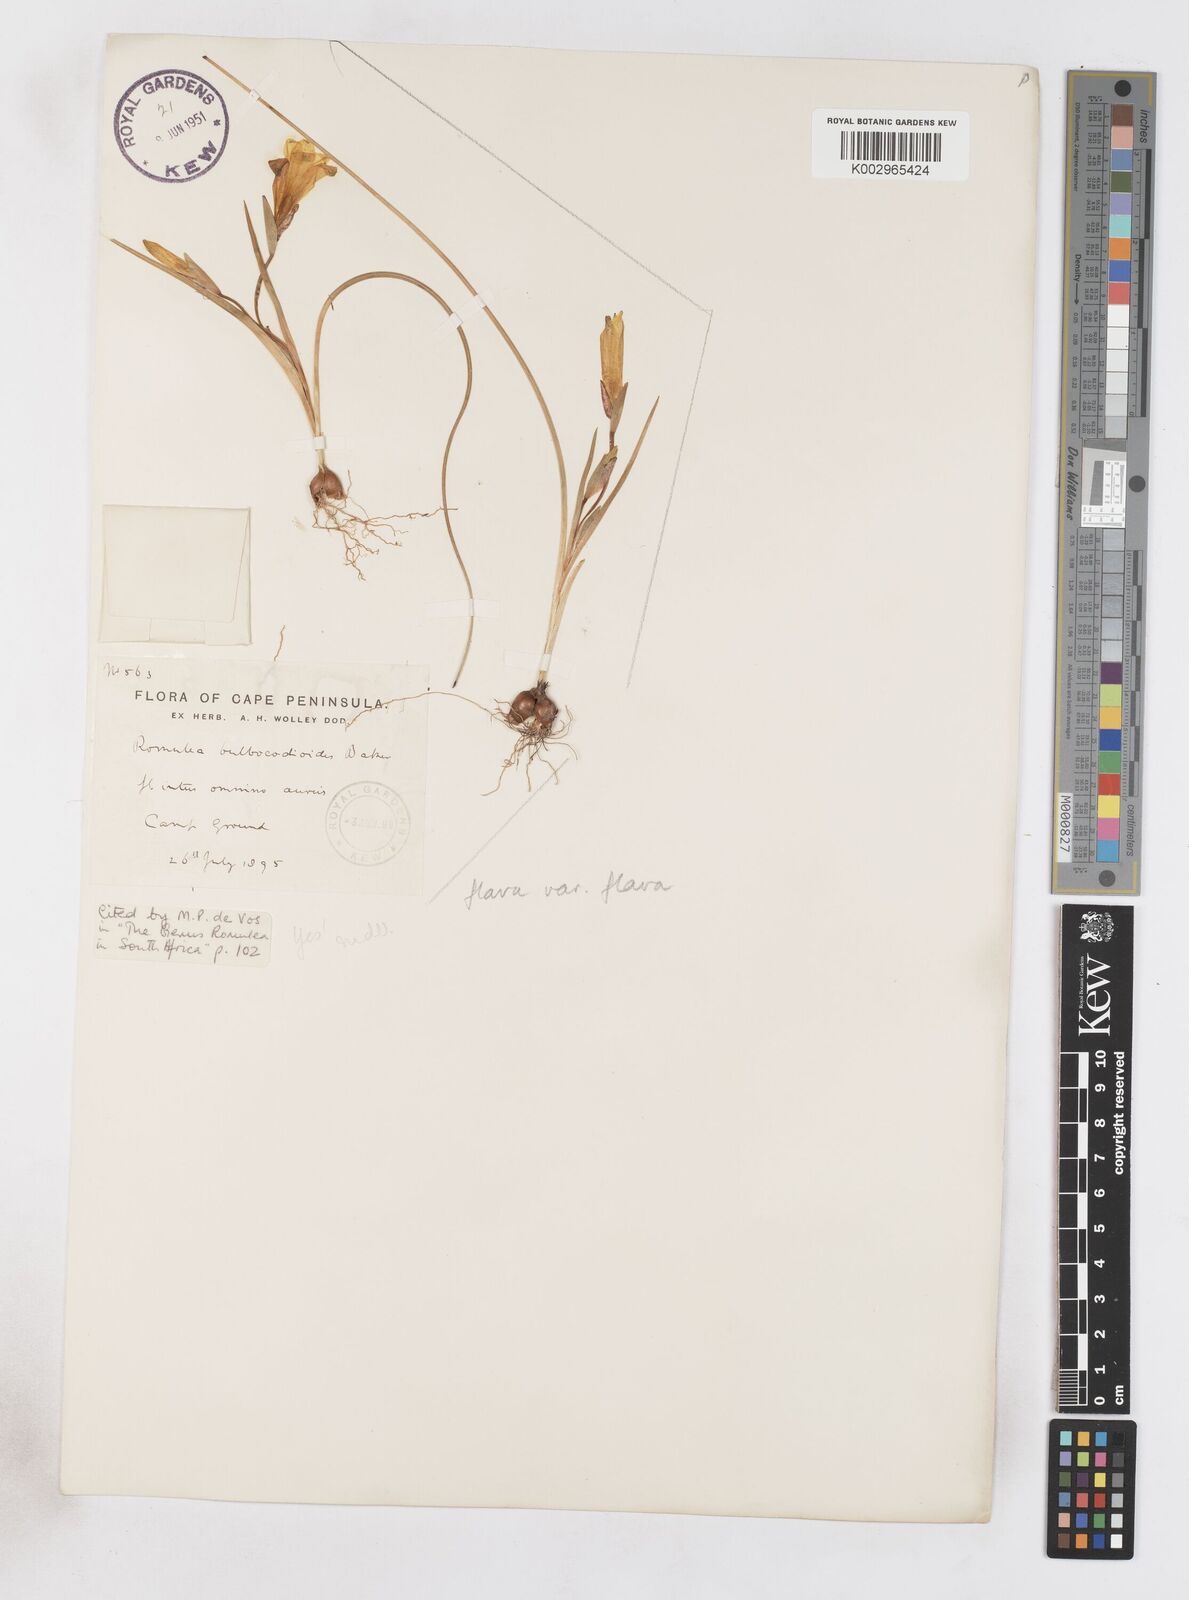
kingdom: Plantae
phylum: Tracheophyta
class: Liliopsida
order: Asparagales
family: Iridaceae
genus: Romulea
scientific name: Romulea flava
